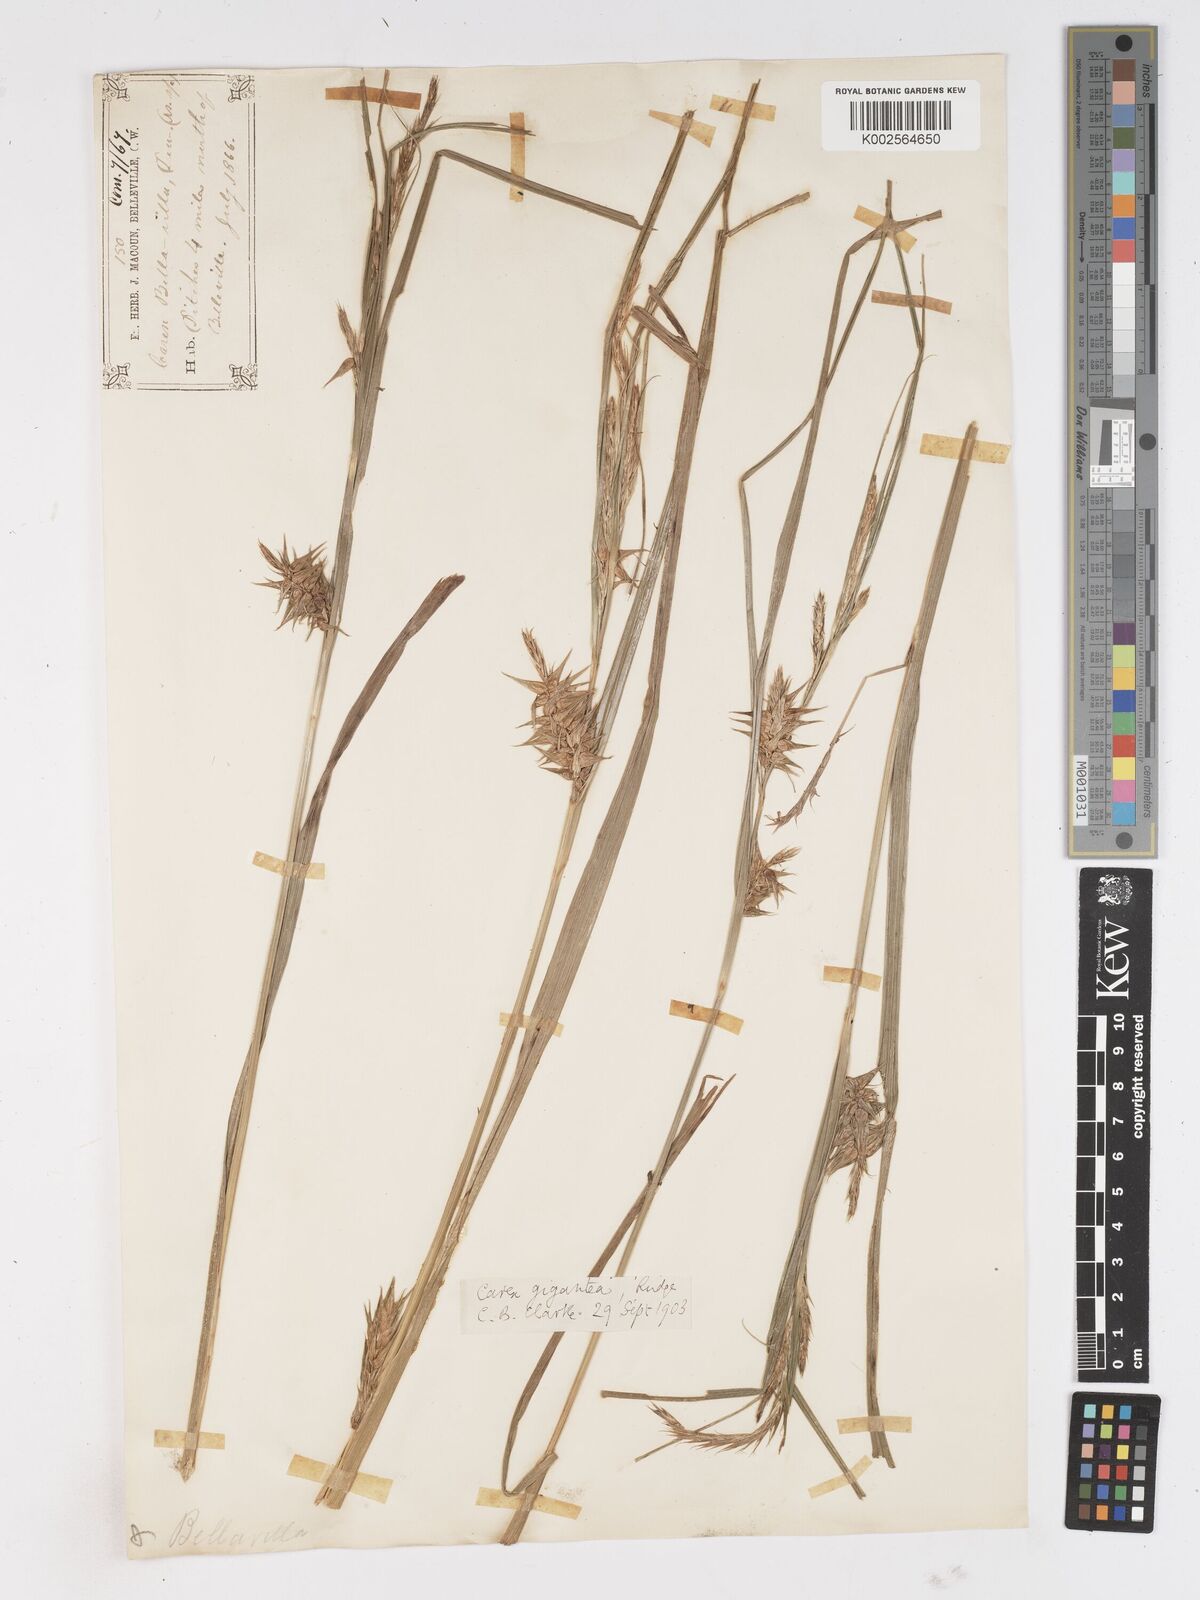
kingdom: Plantae
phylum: Tracheophyta
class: Liliopsida
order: Poales
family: Cyperaceae
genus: Carex
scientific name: Carex gigantea
